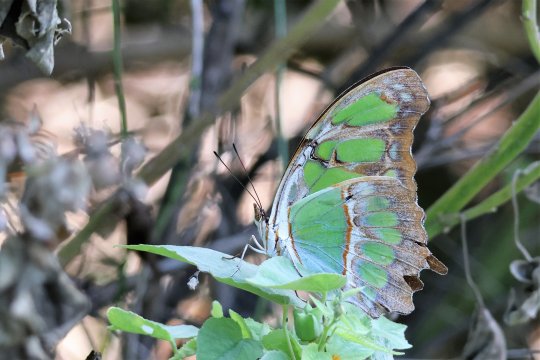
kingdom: Animalia
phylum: Arthropoda
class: Insecta
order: Lepidoptera
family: Nymphalidae
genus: Siproeta
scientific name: Siproeta stelenes
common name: Malachite
